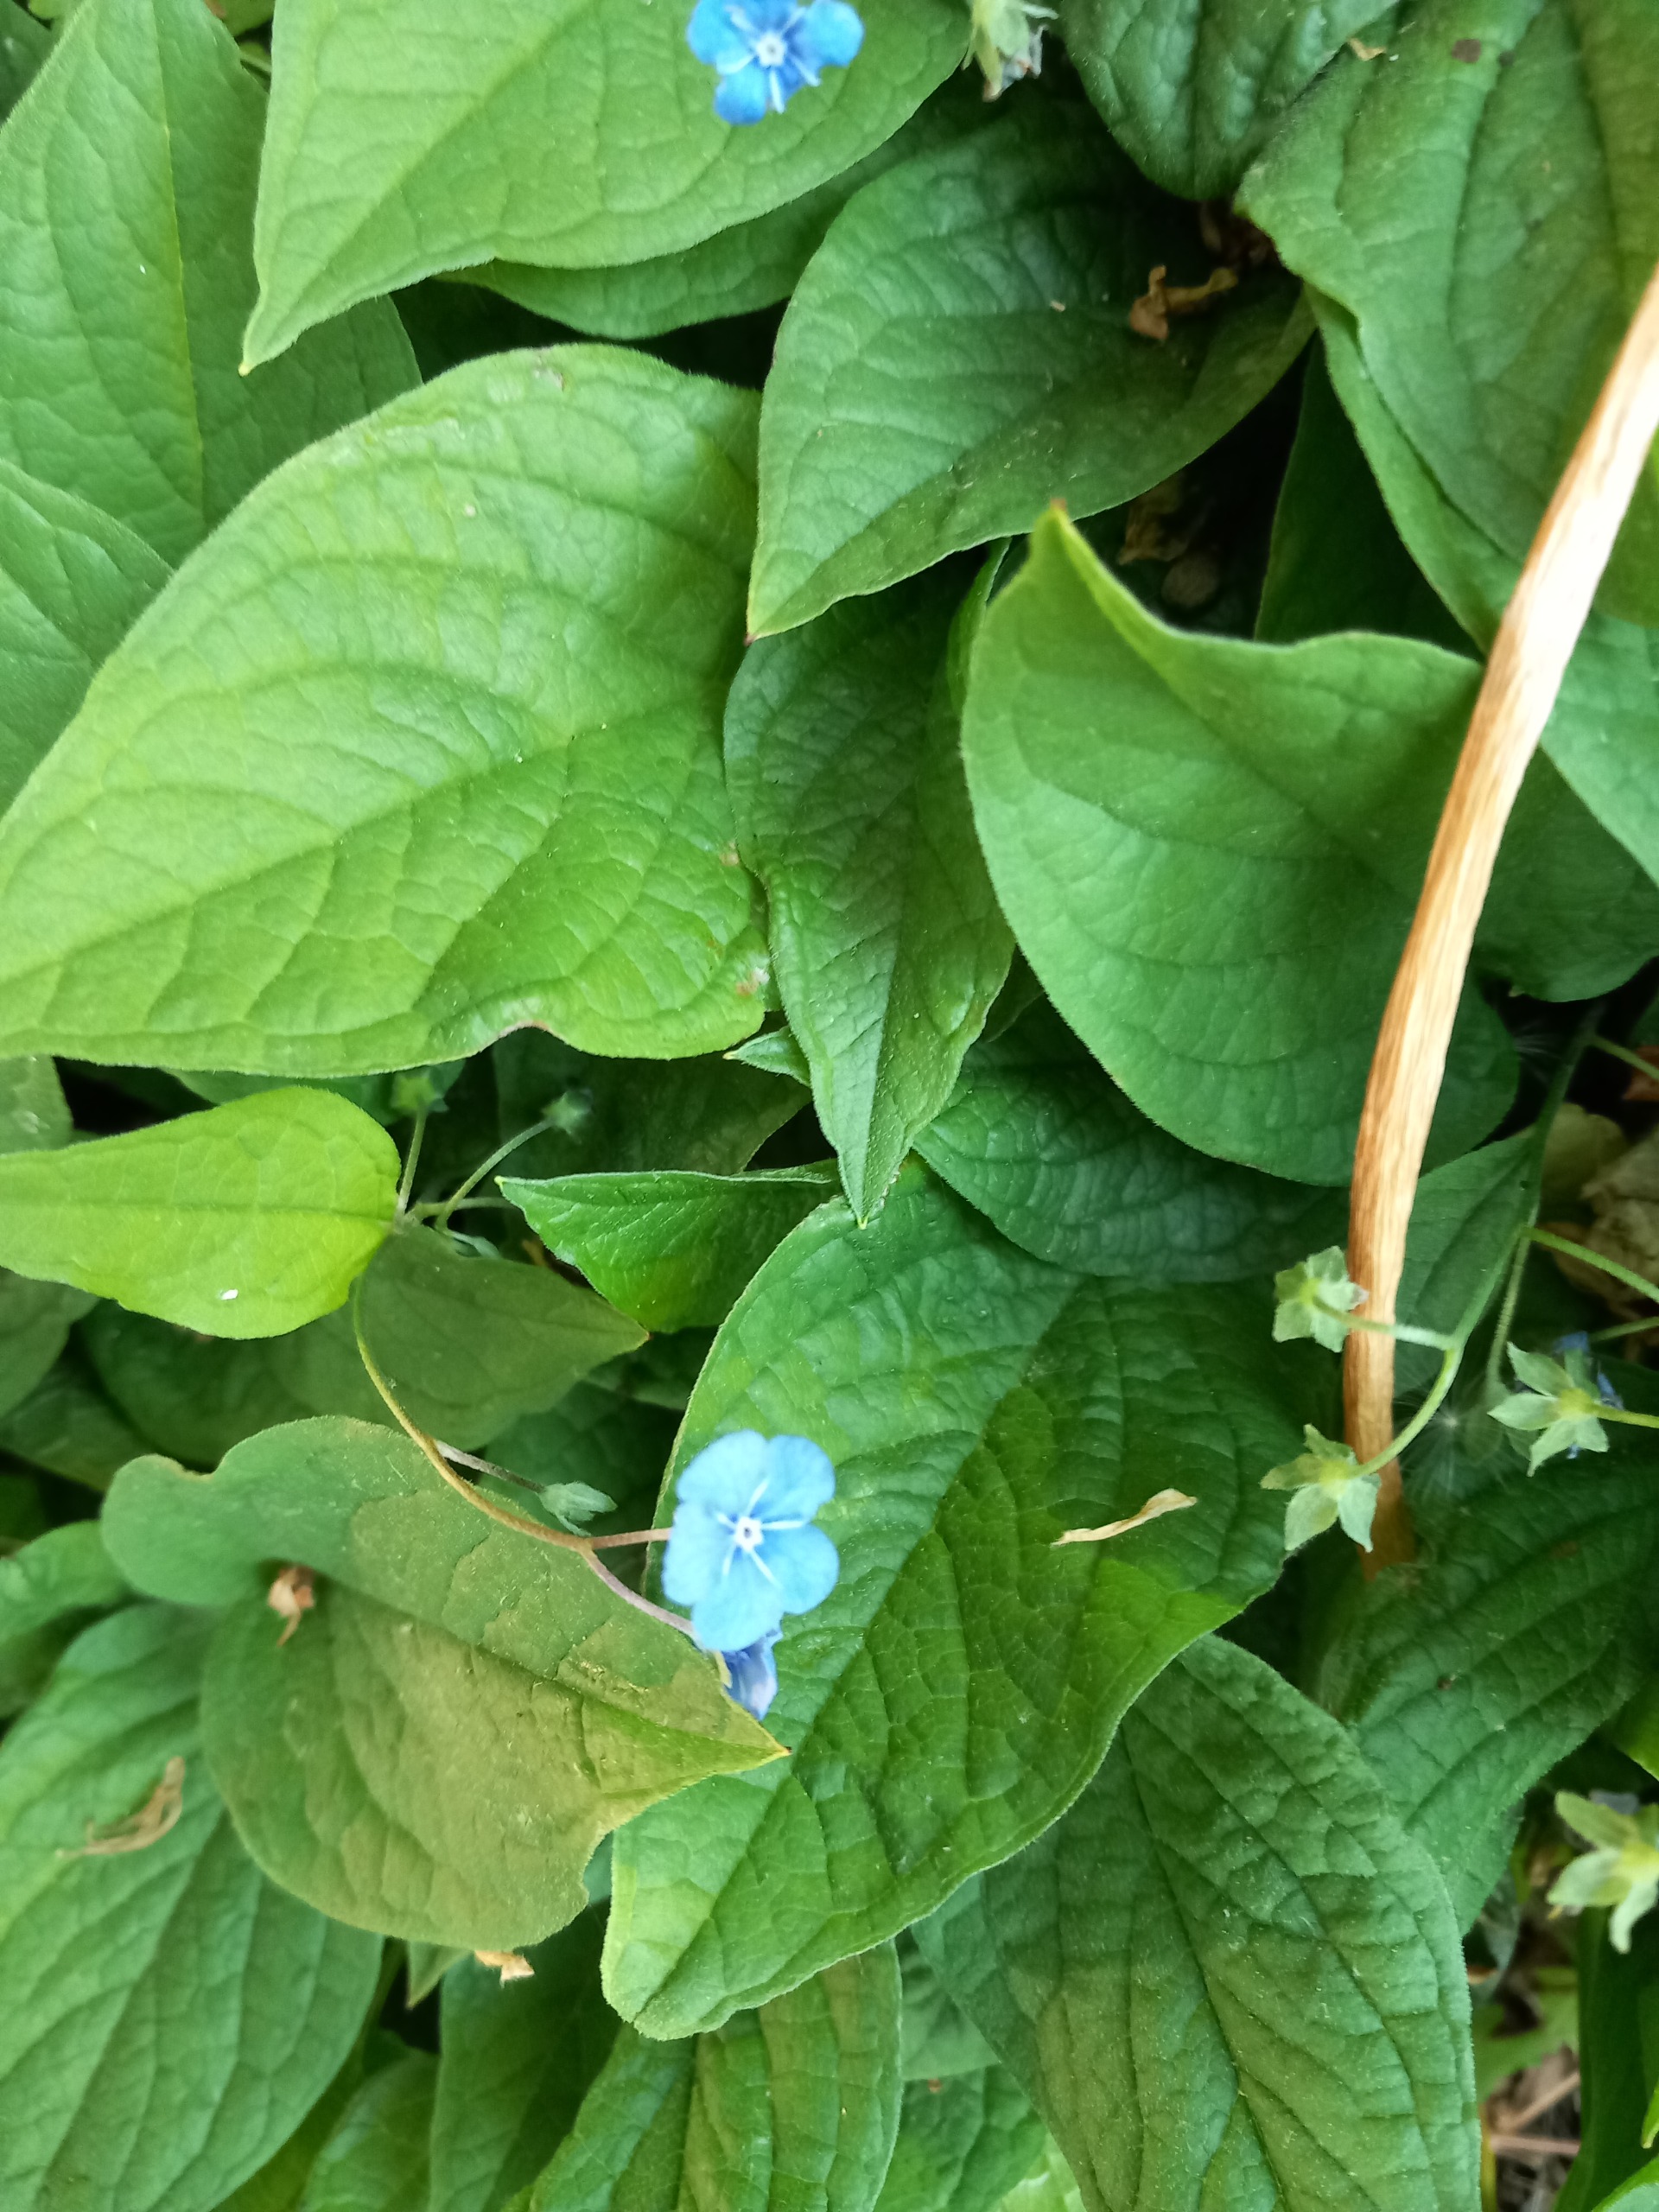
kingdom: Plantae
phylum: Tracheophyta
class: Magnoliopsida
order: Boraginales
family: Boraginaceae
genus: Omphalodes
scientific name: Omphalodes verna
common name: Vår-kærminde
